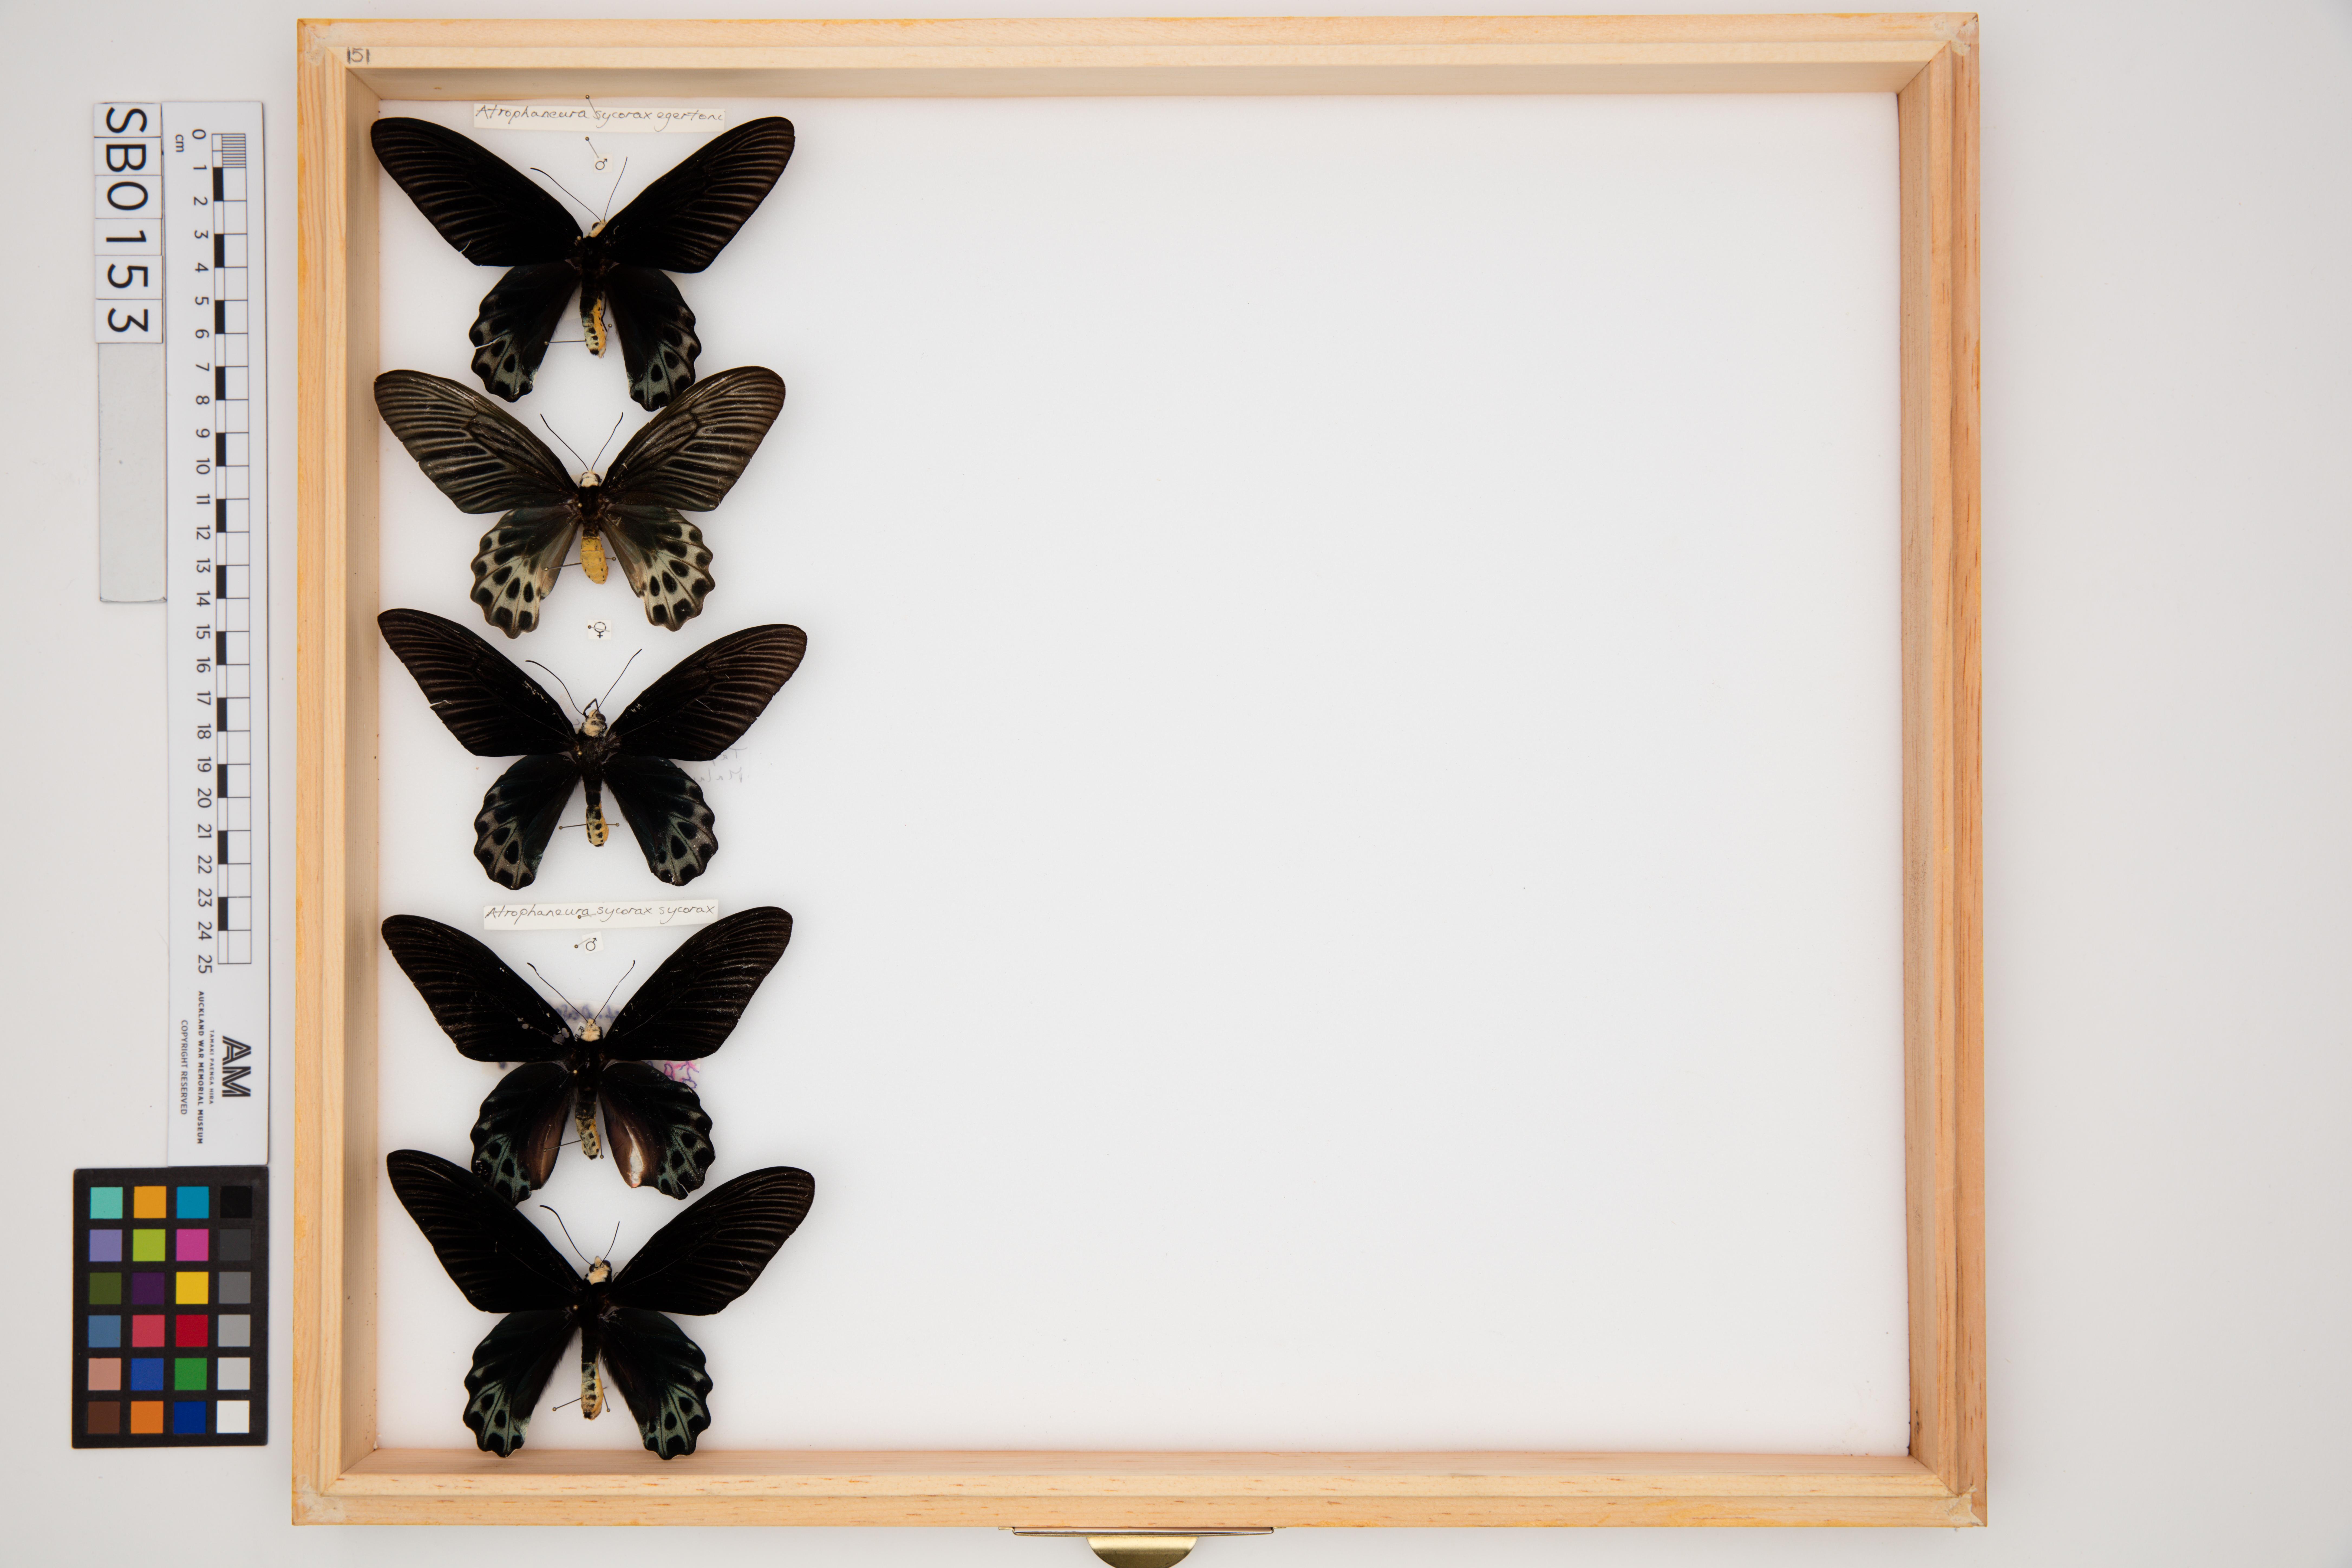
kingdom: Animalia
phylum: Arthropoda
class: Insecta
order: Lepidoptera
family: Papilionidae
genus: Atrophaneura
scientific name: Atrophaneura sycorax
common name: Whitehead batwing
